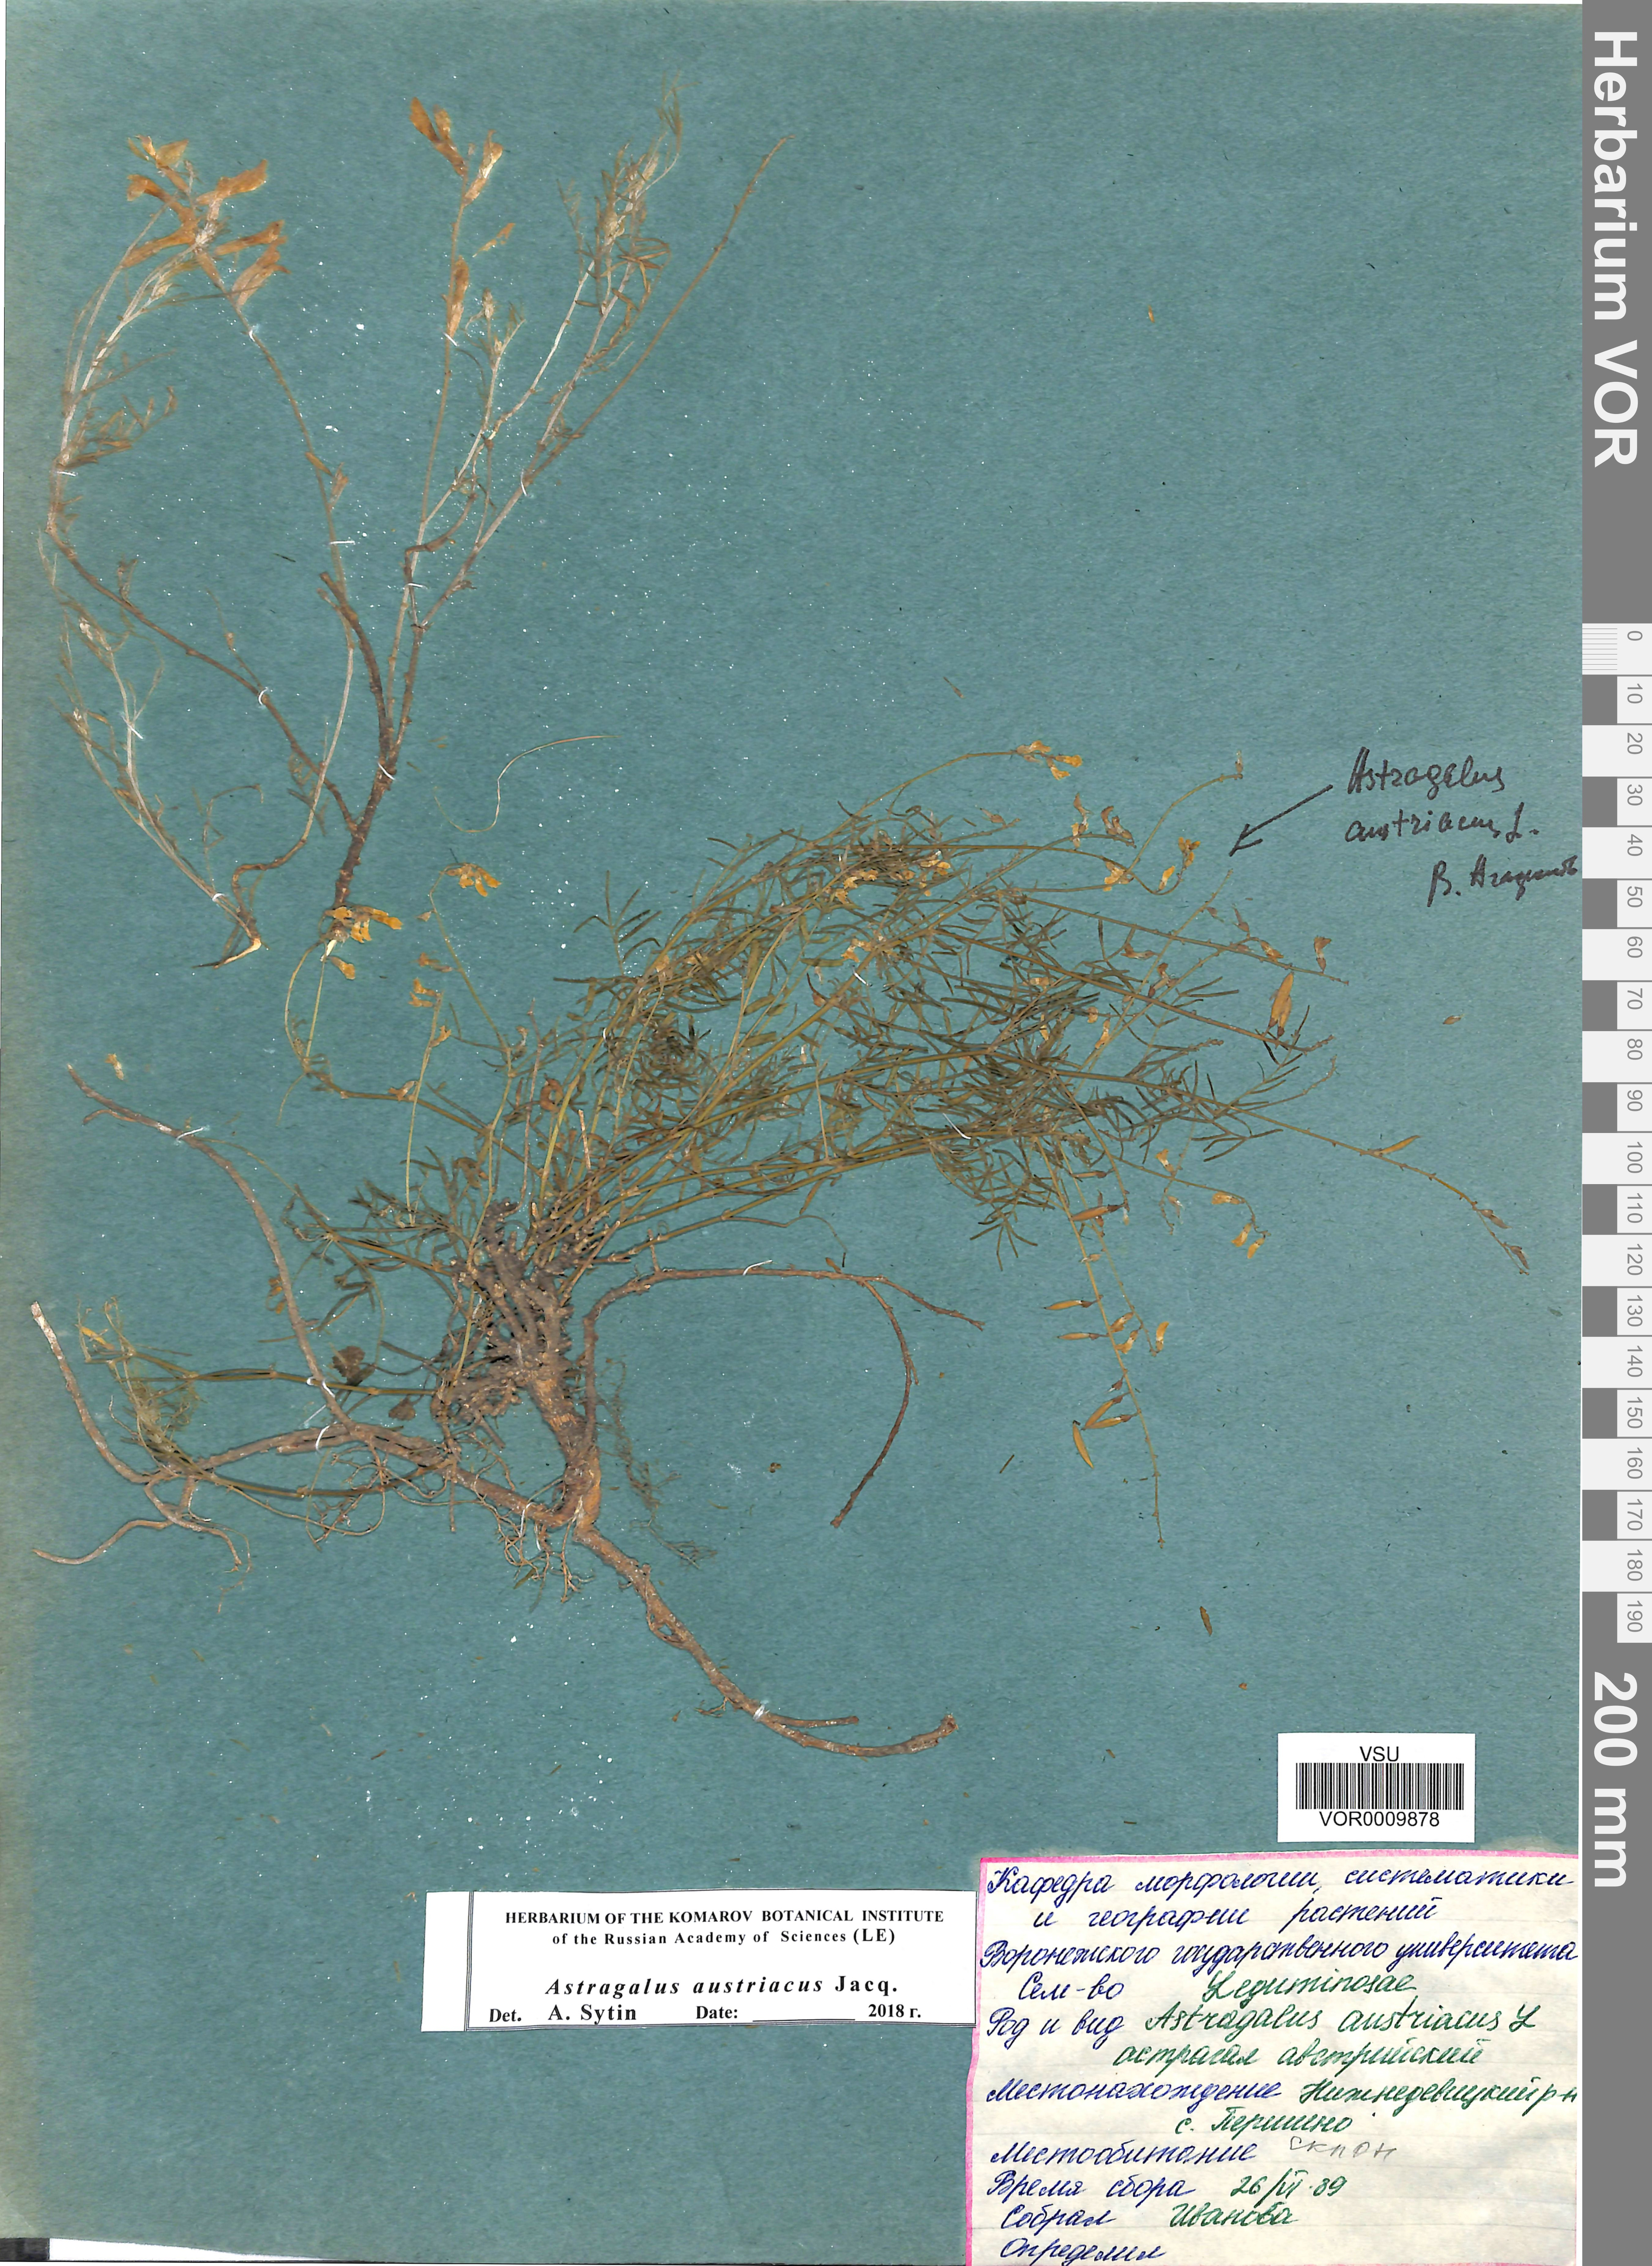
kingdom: Plantae
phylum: Tracheophyta
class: Magnoliopsida
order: Fabales
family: Fabaceae
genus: Astragalus
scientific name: Astragalus austriacus
